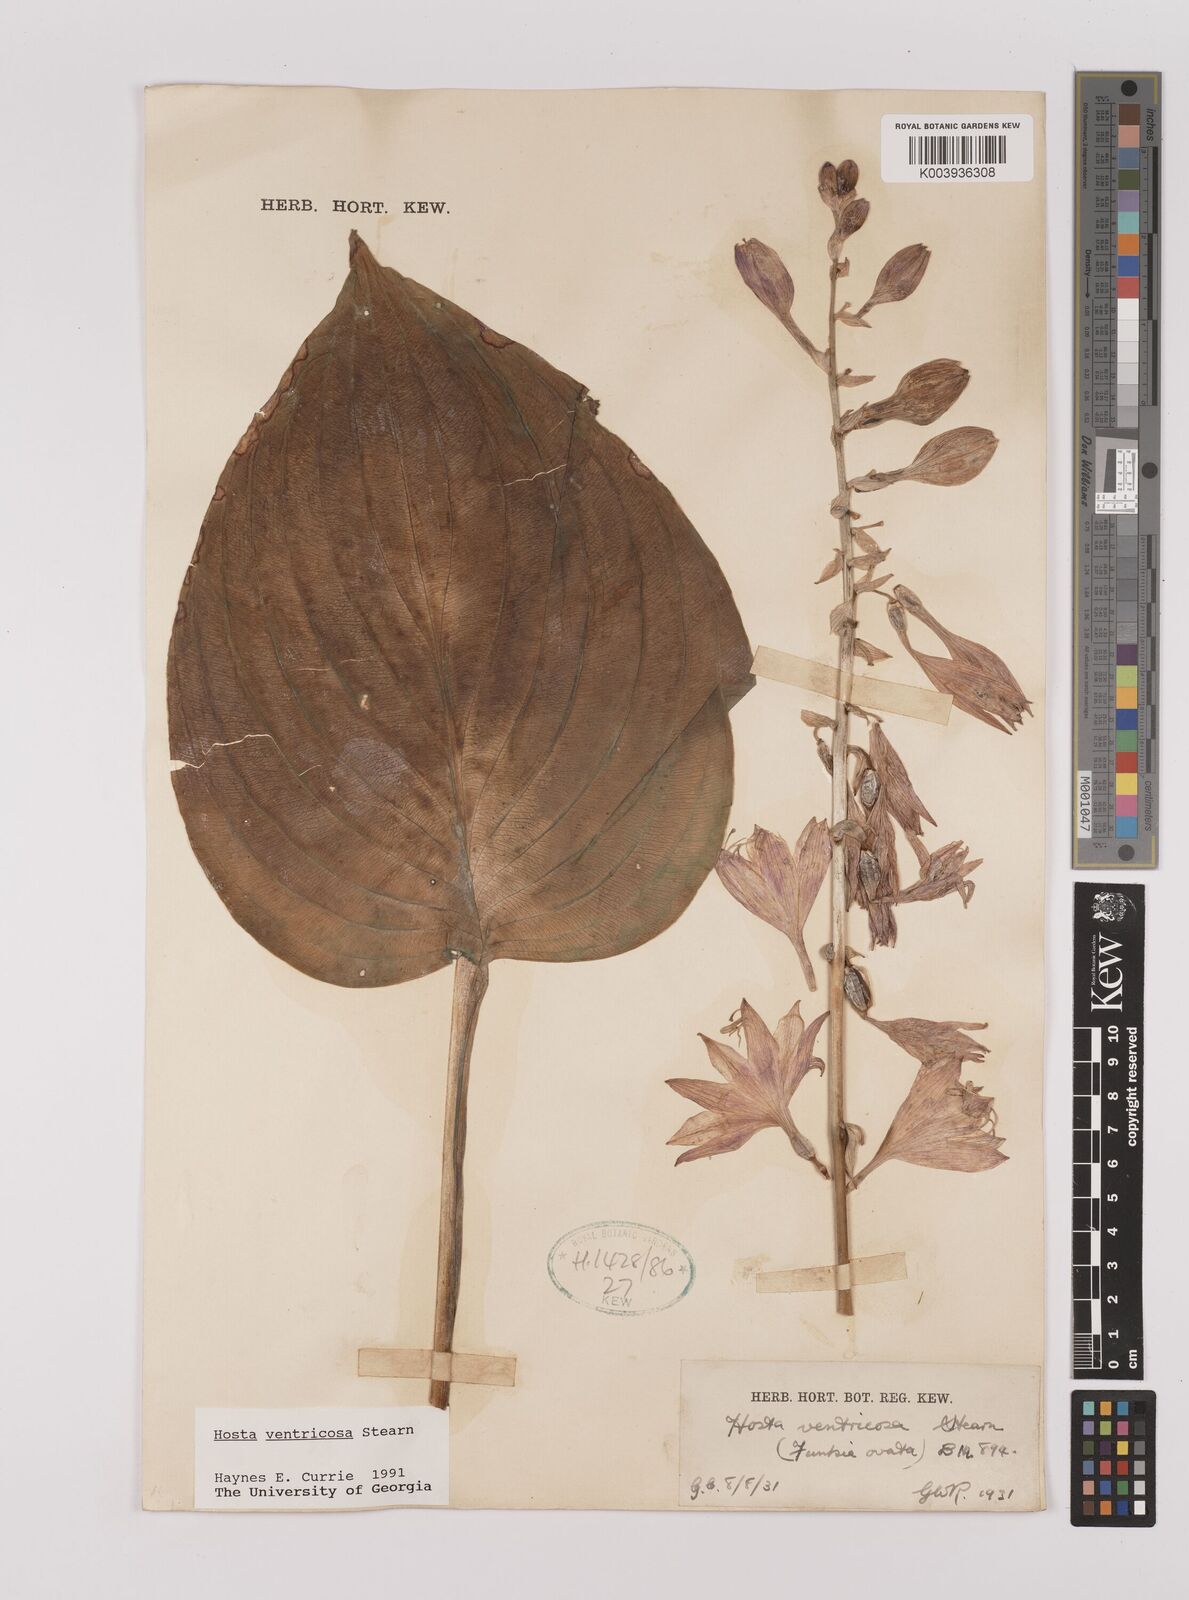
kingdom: Plantae
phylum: Tracheophyta
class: Liliopsida
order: Asparagales
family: Asparagaceae
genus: Hosta
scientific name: Hosta ventricosa
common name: Blue plantain-lily
